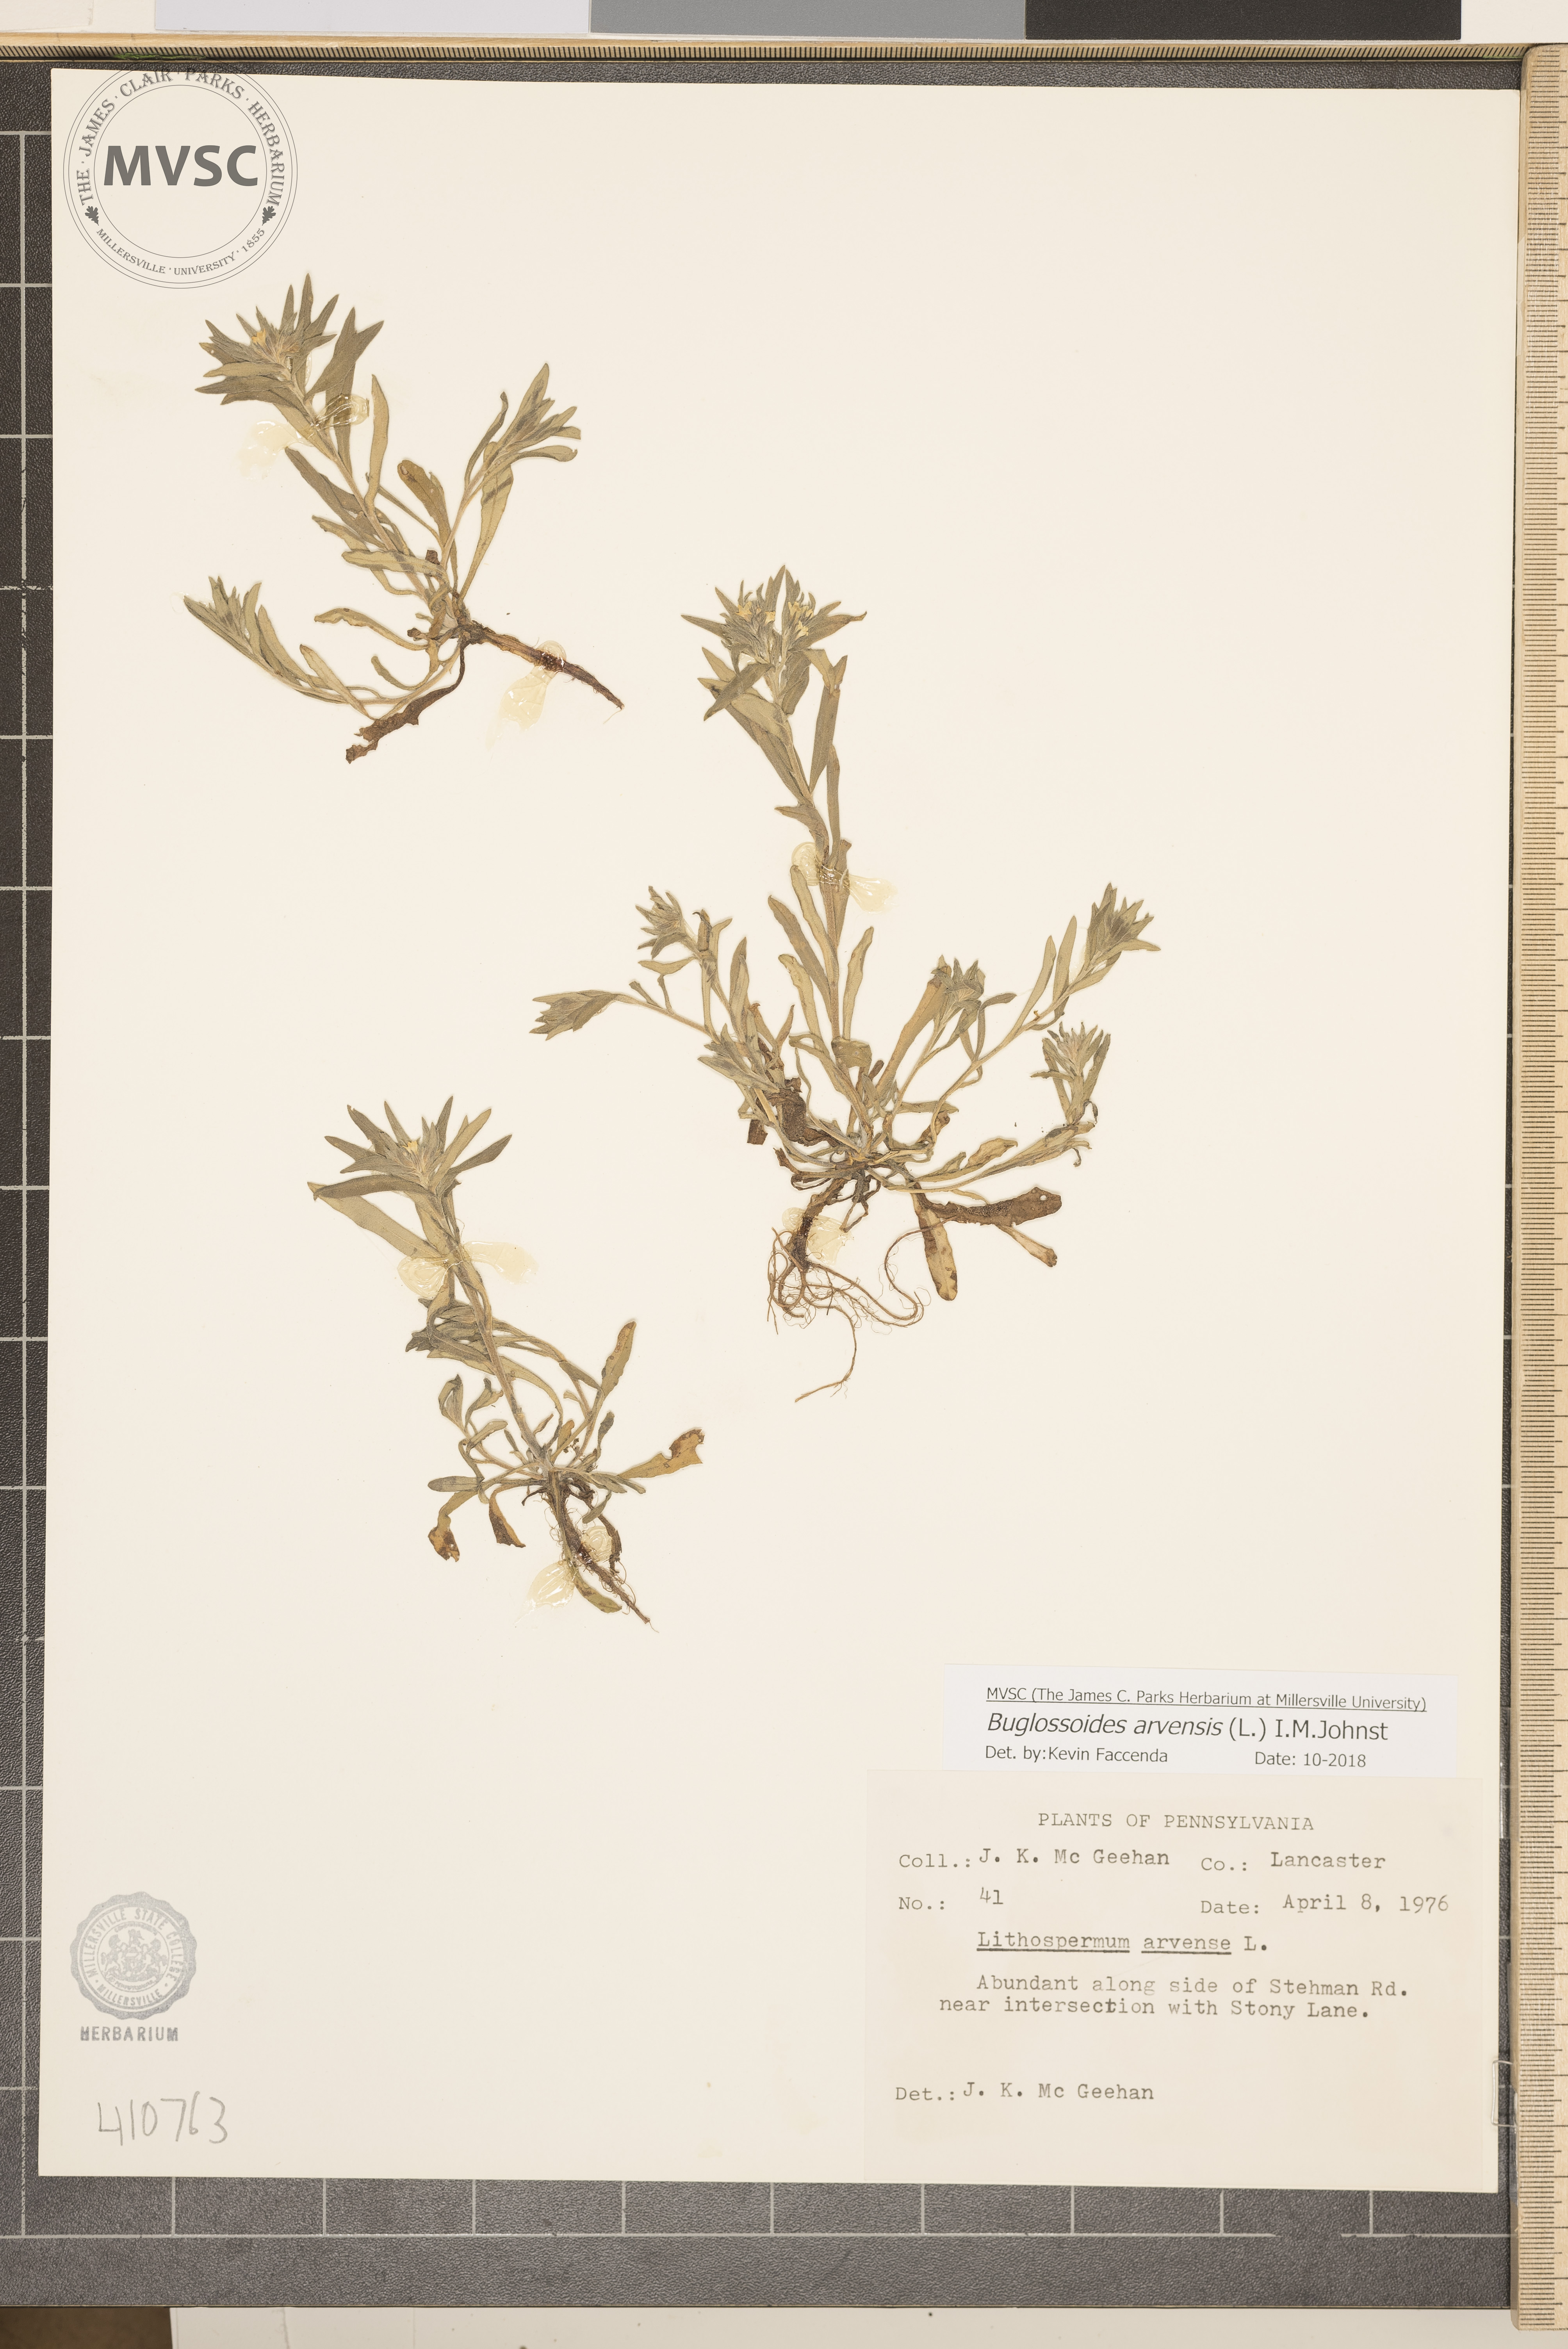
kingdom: Plantae
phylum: Tracheophyta
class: Magnoliopsida
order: Boraginales
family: Boraginaceae
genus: Buglossoides
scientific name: Buglossoides arvensis
